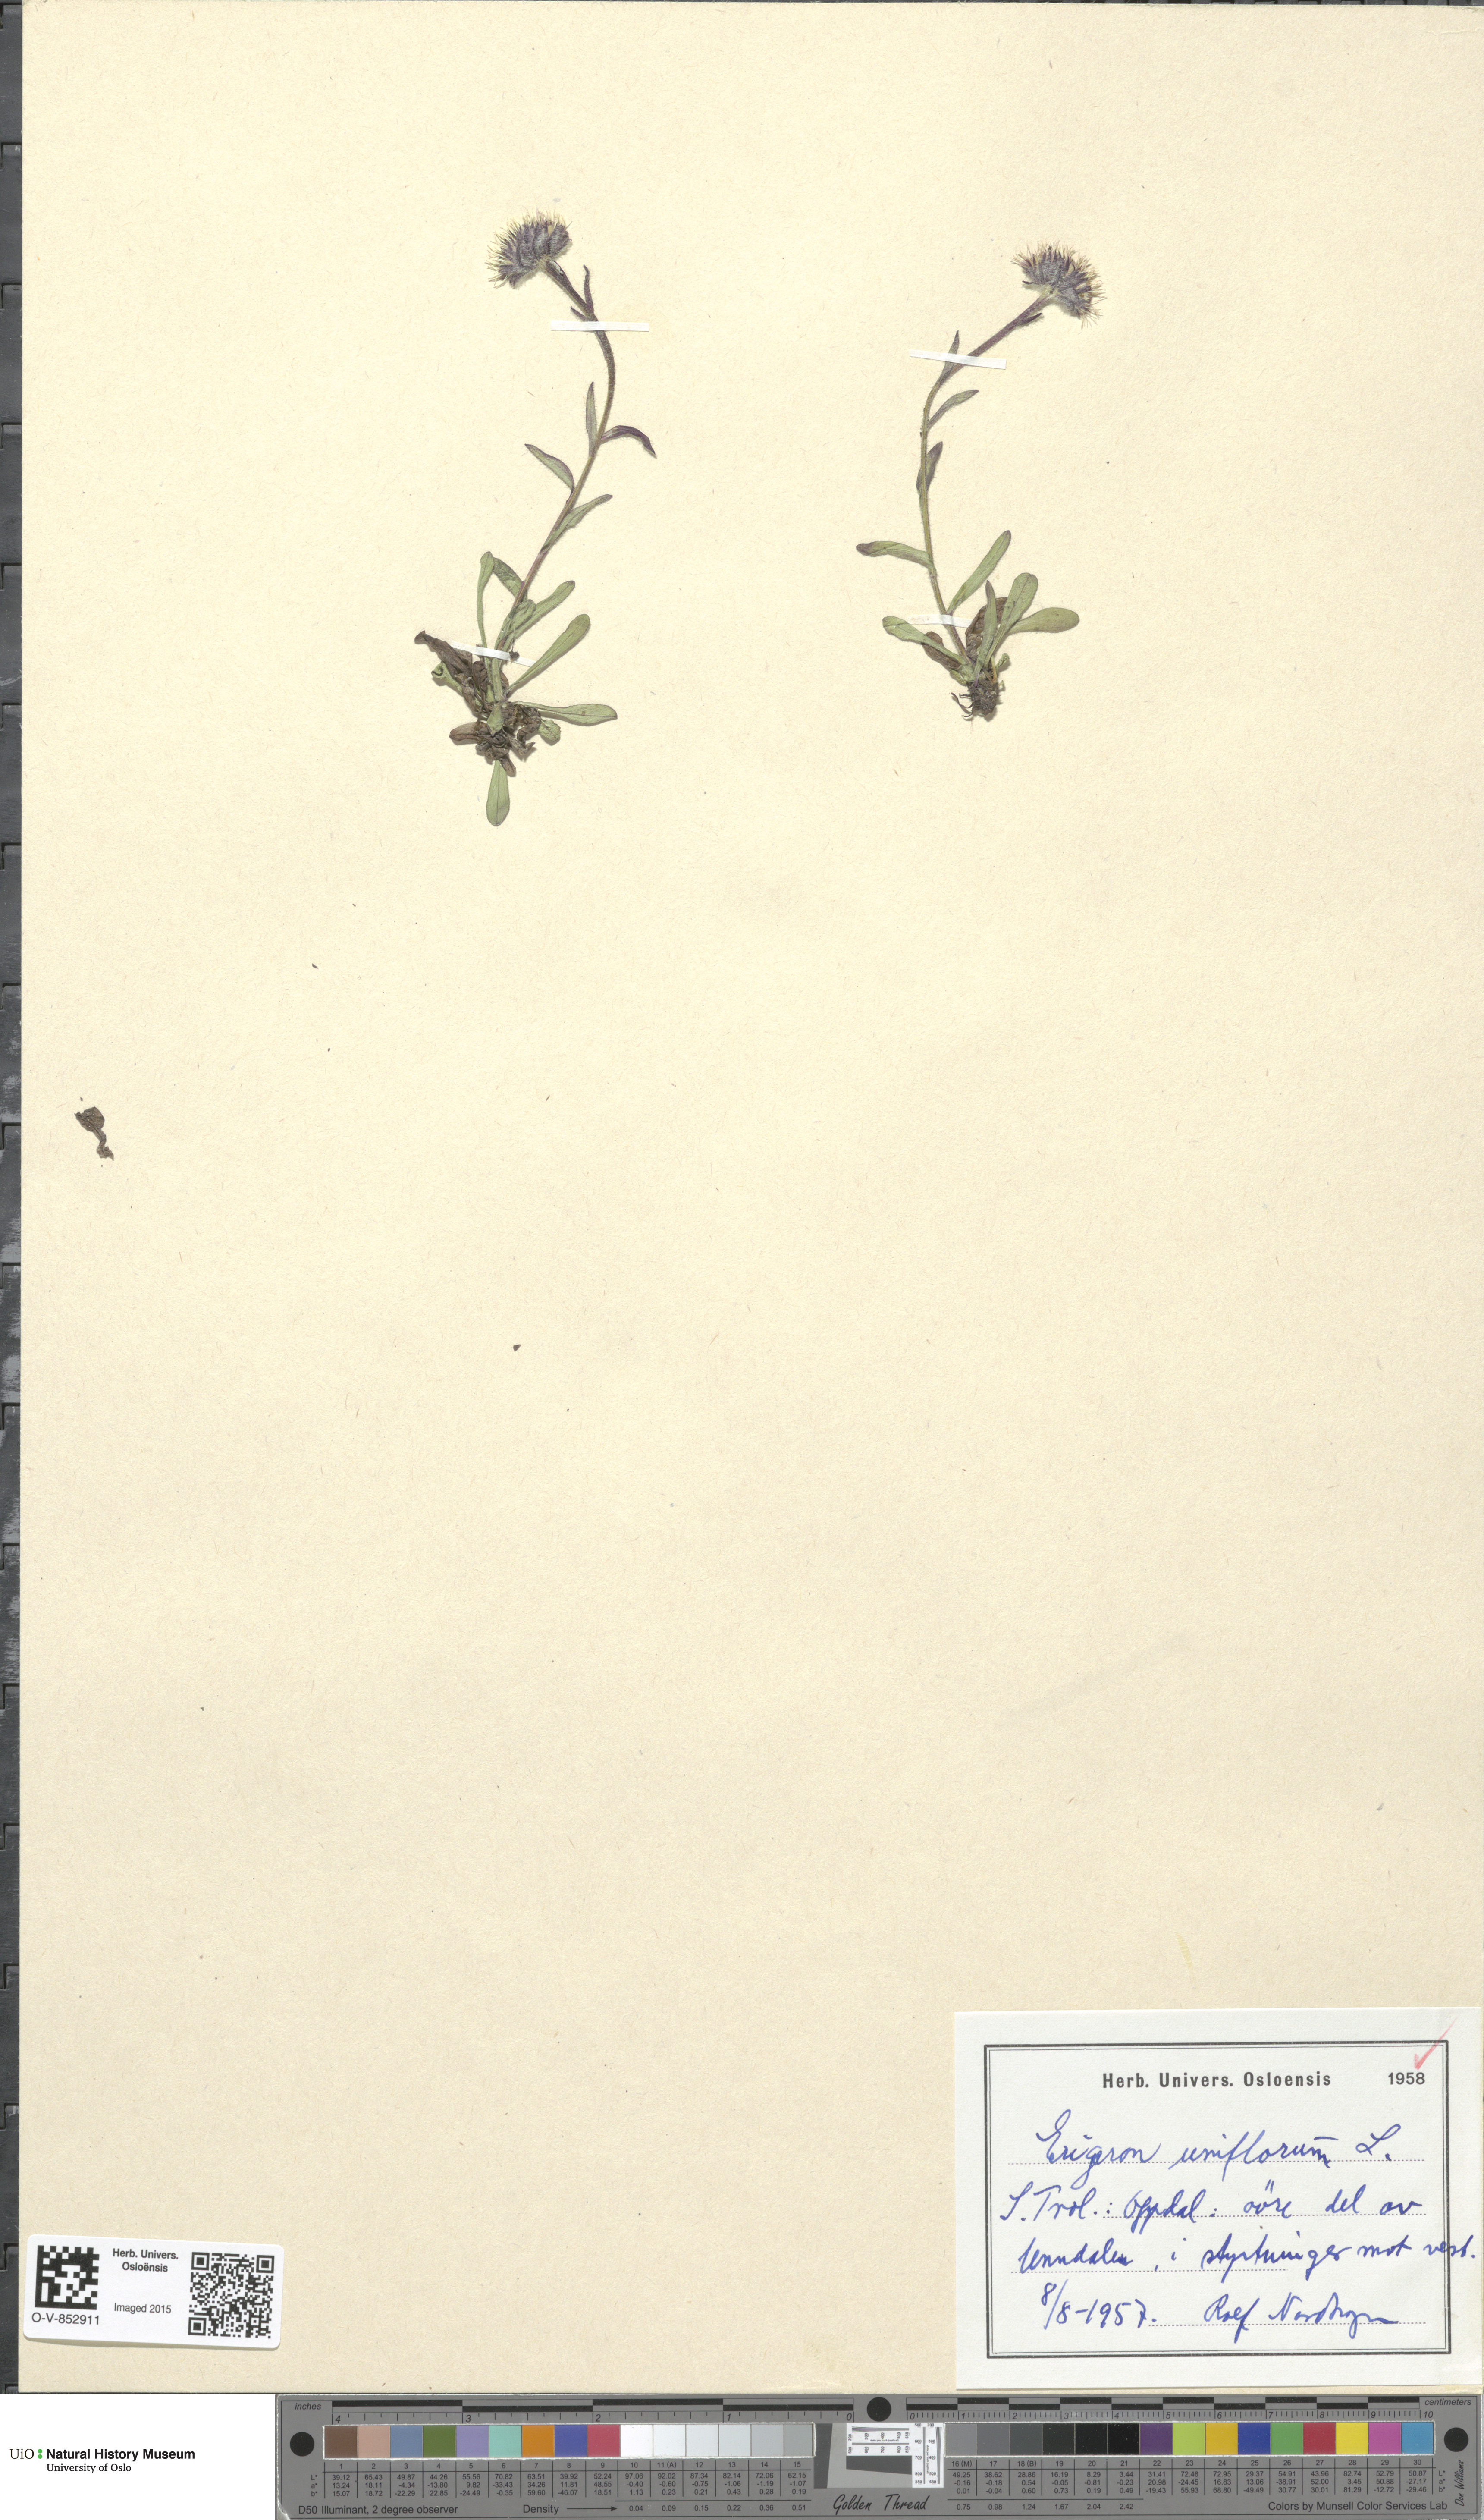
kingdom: Plantae
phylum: Tracheophyta
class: Magnoliopsida
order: Asterales
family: Asteraceae
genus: Erigeron
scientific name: Erigeron uniflorus
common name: Northern daisy
